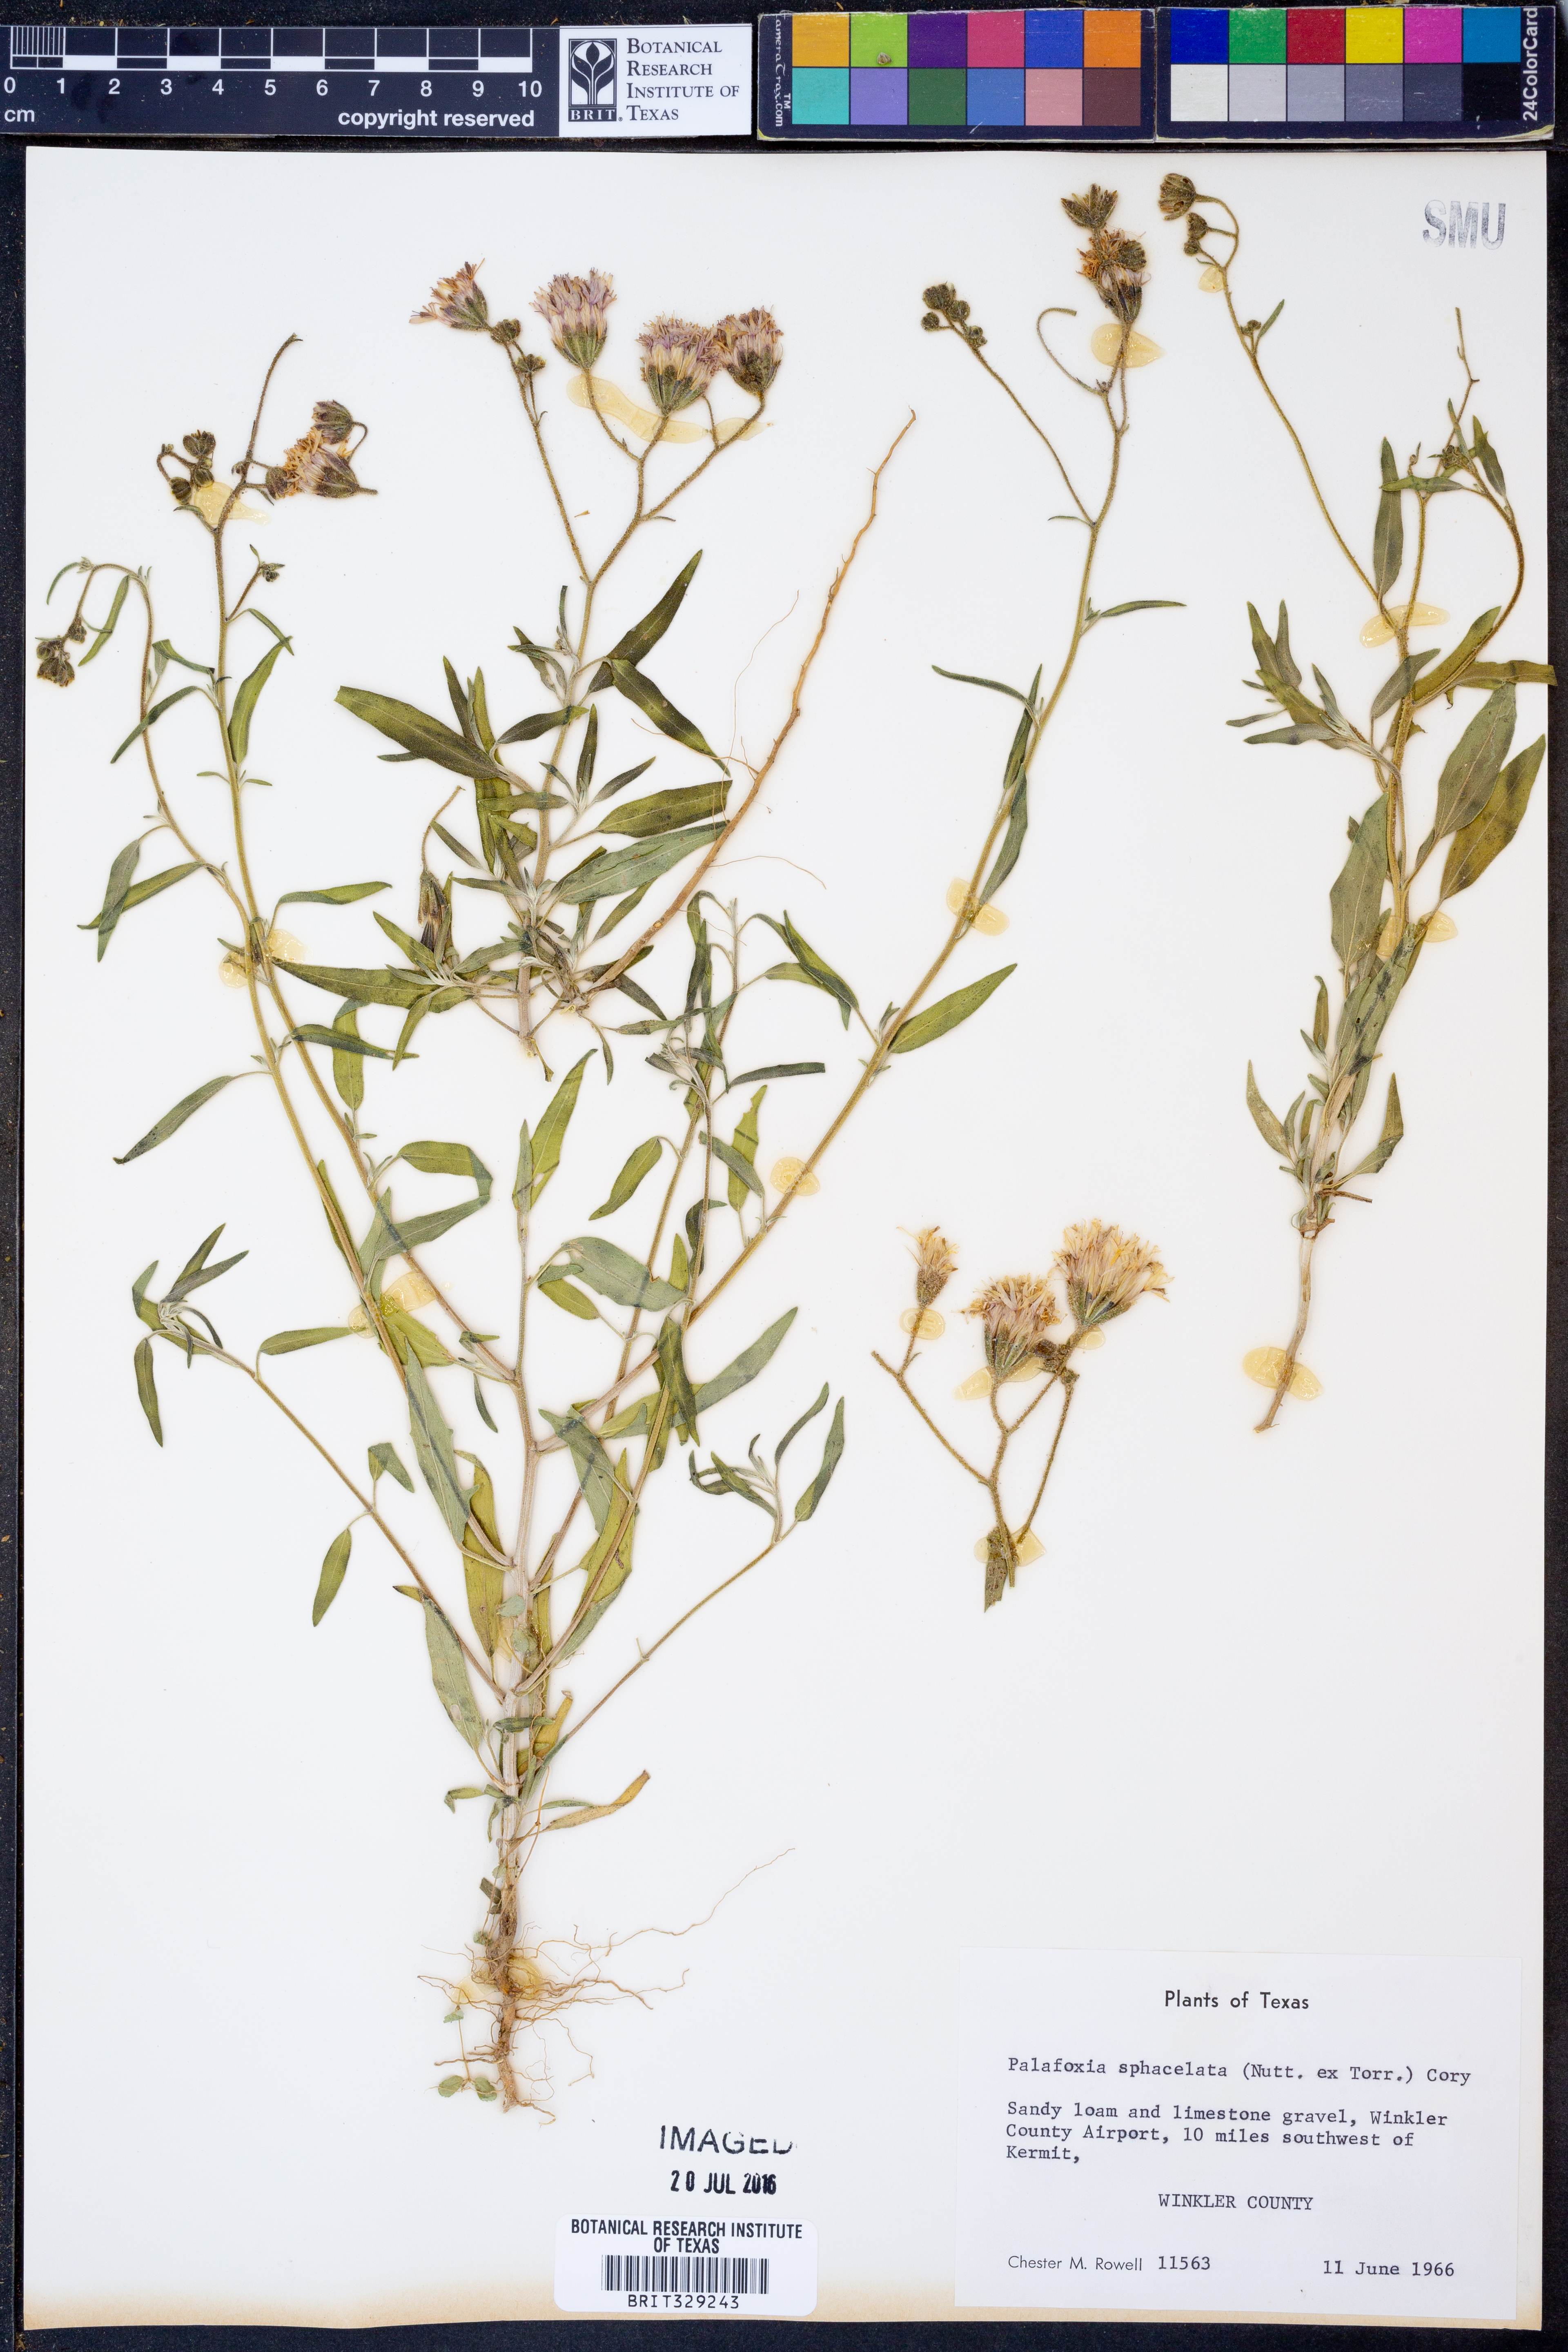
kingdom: Plantae
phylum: Tracheophyta
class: Magnoliopsida
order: Asterales
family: Asteraceae
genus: Palafoxia
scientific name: Palafoxia sphacelata
